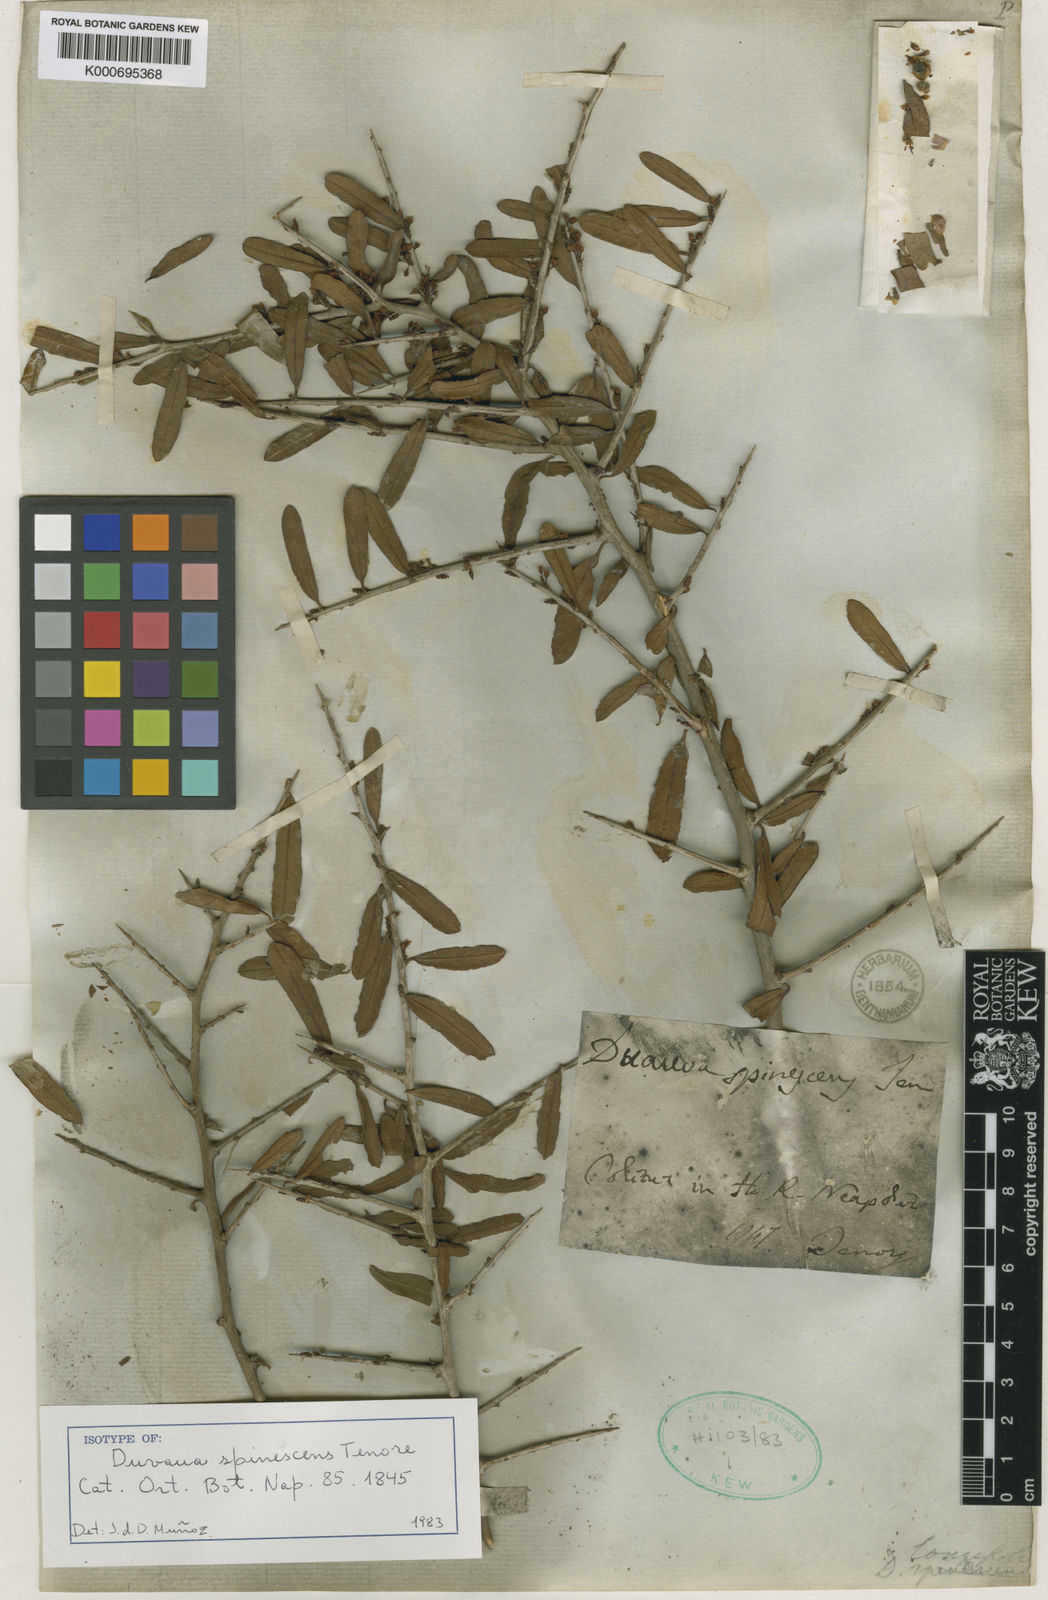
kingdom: Plantae
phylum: Tracheophyta
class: Magnoliopsida
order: Sapindales
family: Anacardiaceae
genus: Schinus
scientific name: Schinus longifolia
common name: Longleaf peppertree
